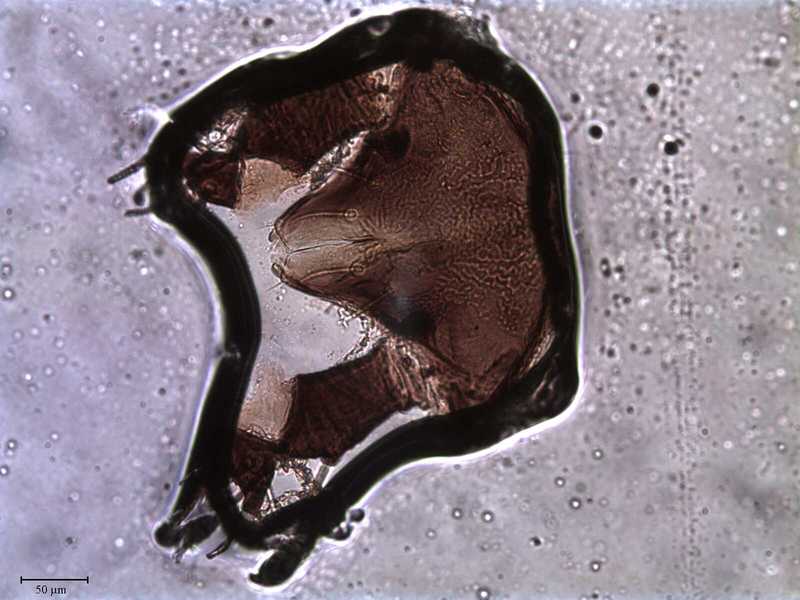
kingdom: Animalia
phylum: Arthropoda
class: Arachnida
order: Trombidiformes
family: Caeculidae
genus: Caeculus
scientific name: Caeculus
